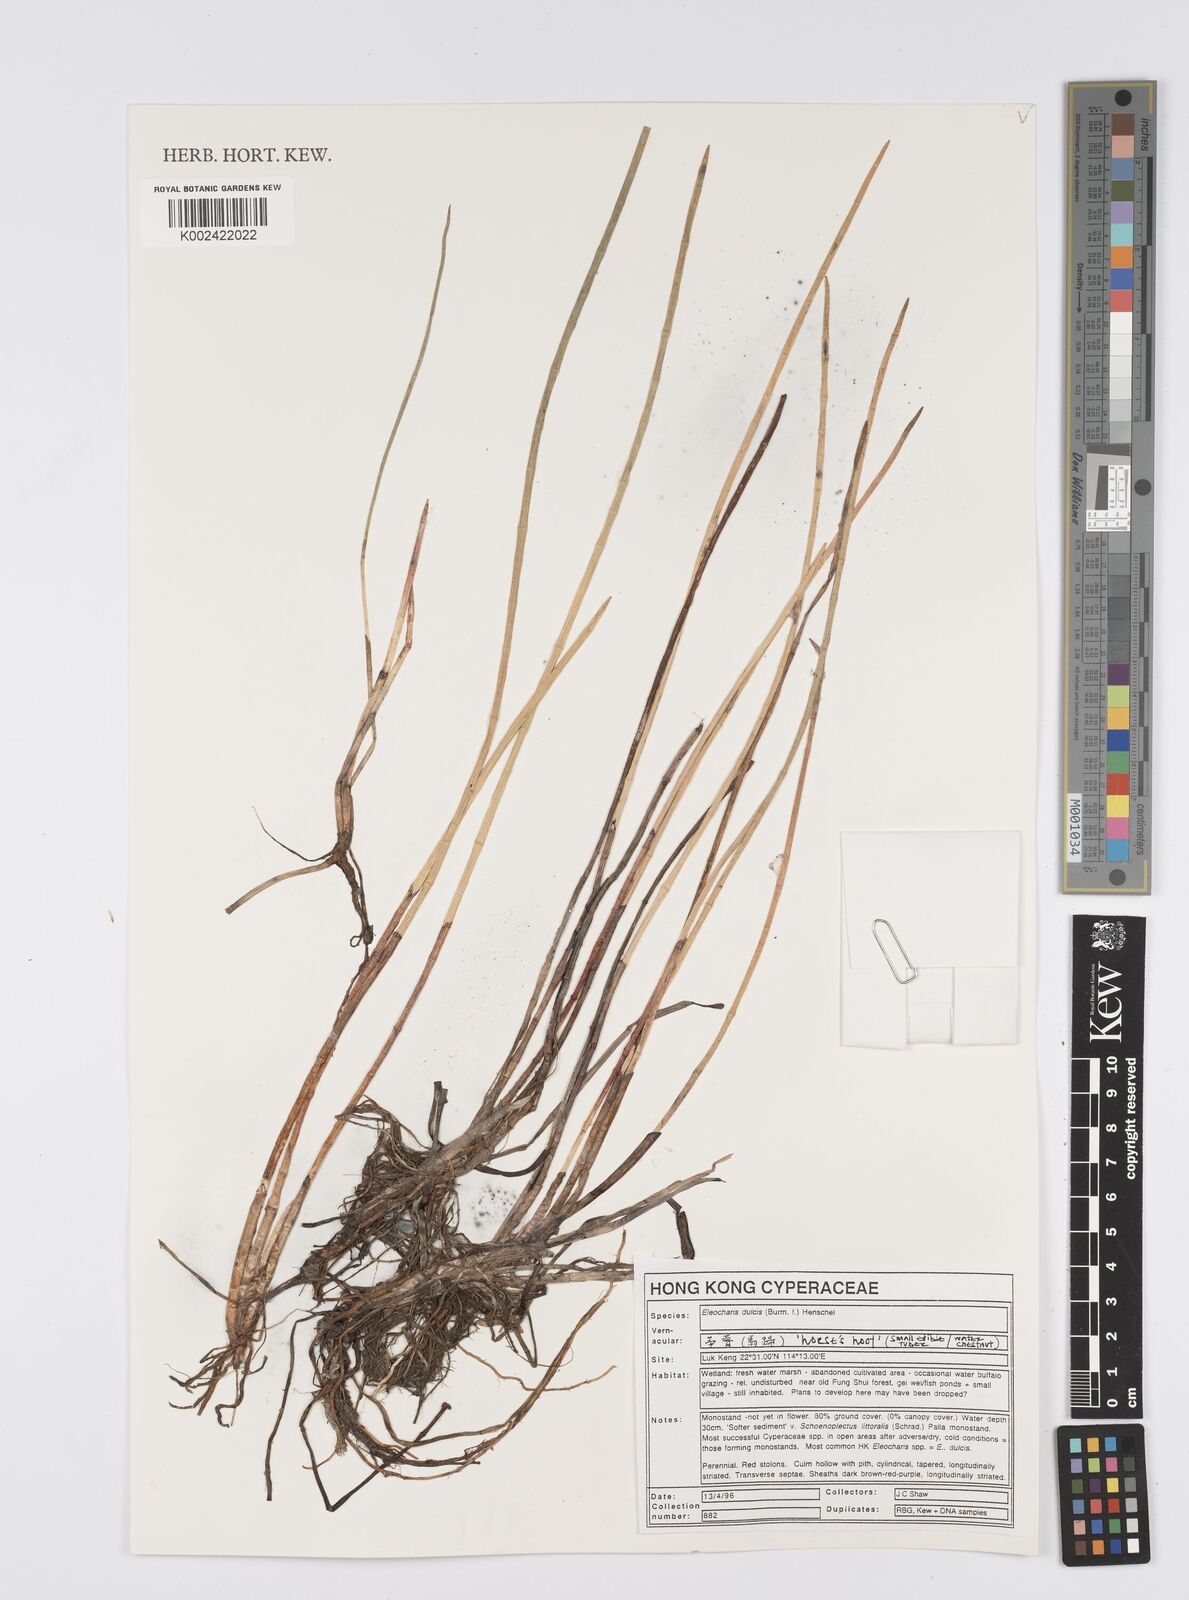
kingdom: Plantae
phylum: Tracheophyta
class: Liliopsida
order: Poales
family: Cyperaceae
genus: Eleocharis
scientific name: Eleocharis dulcis
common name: Chinese water chestnut
